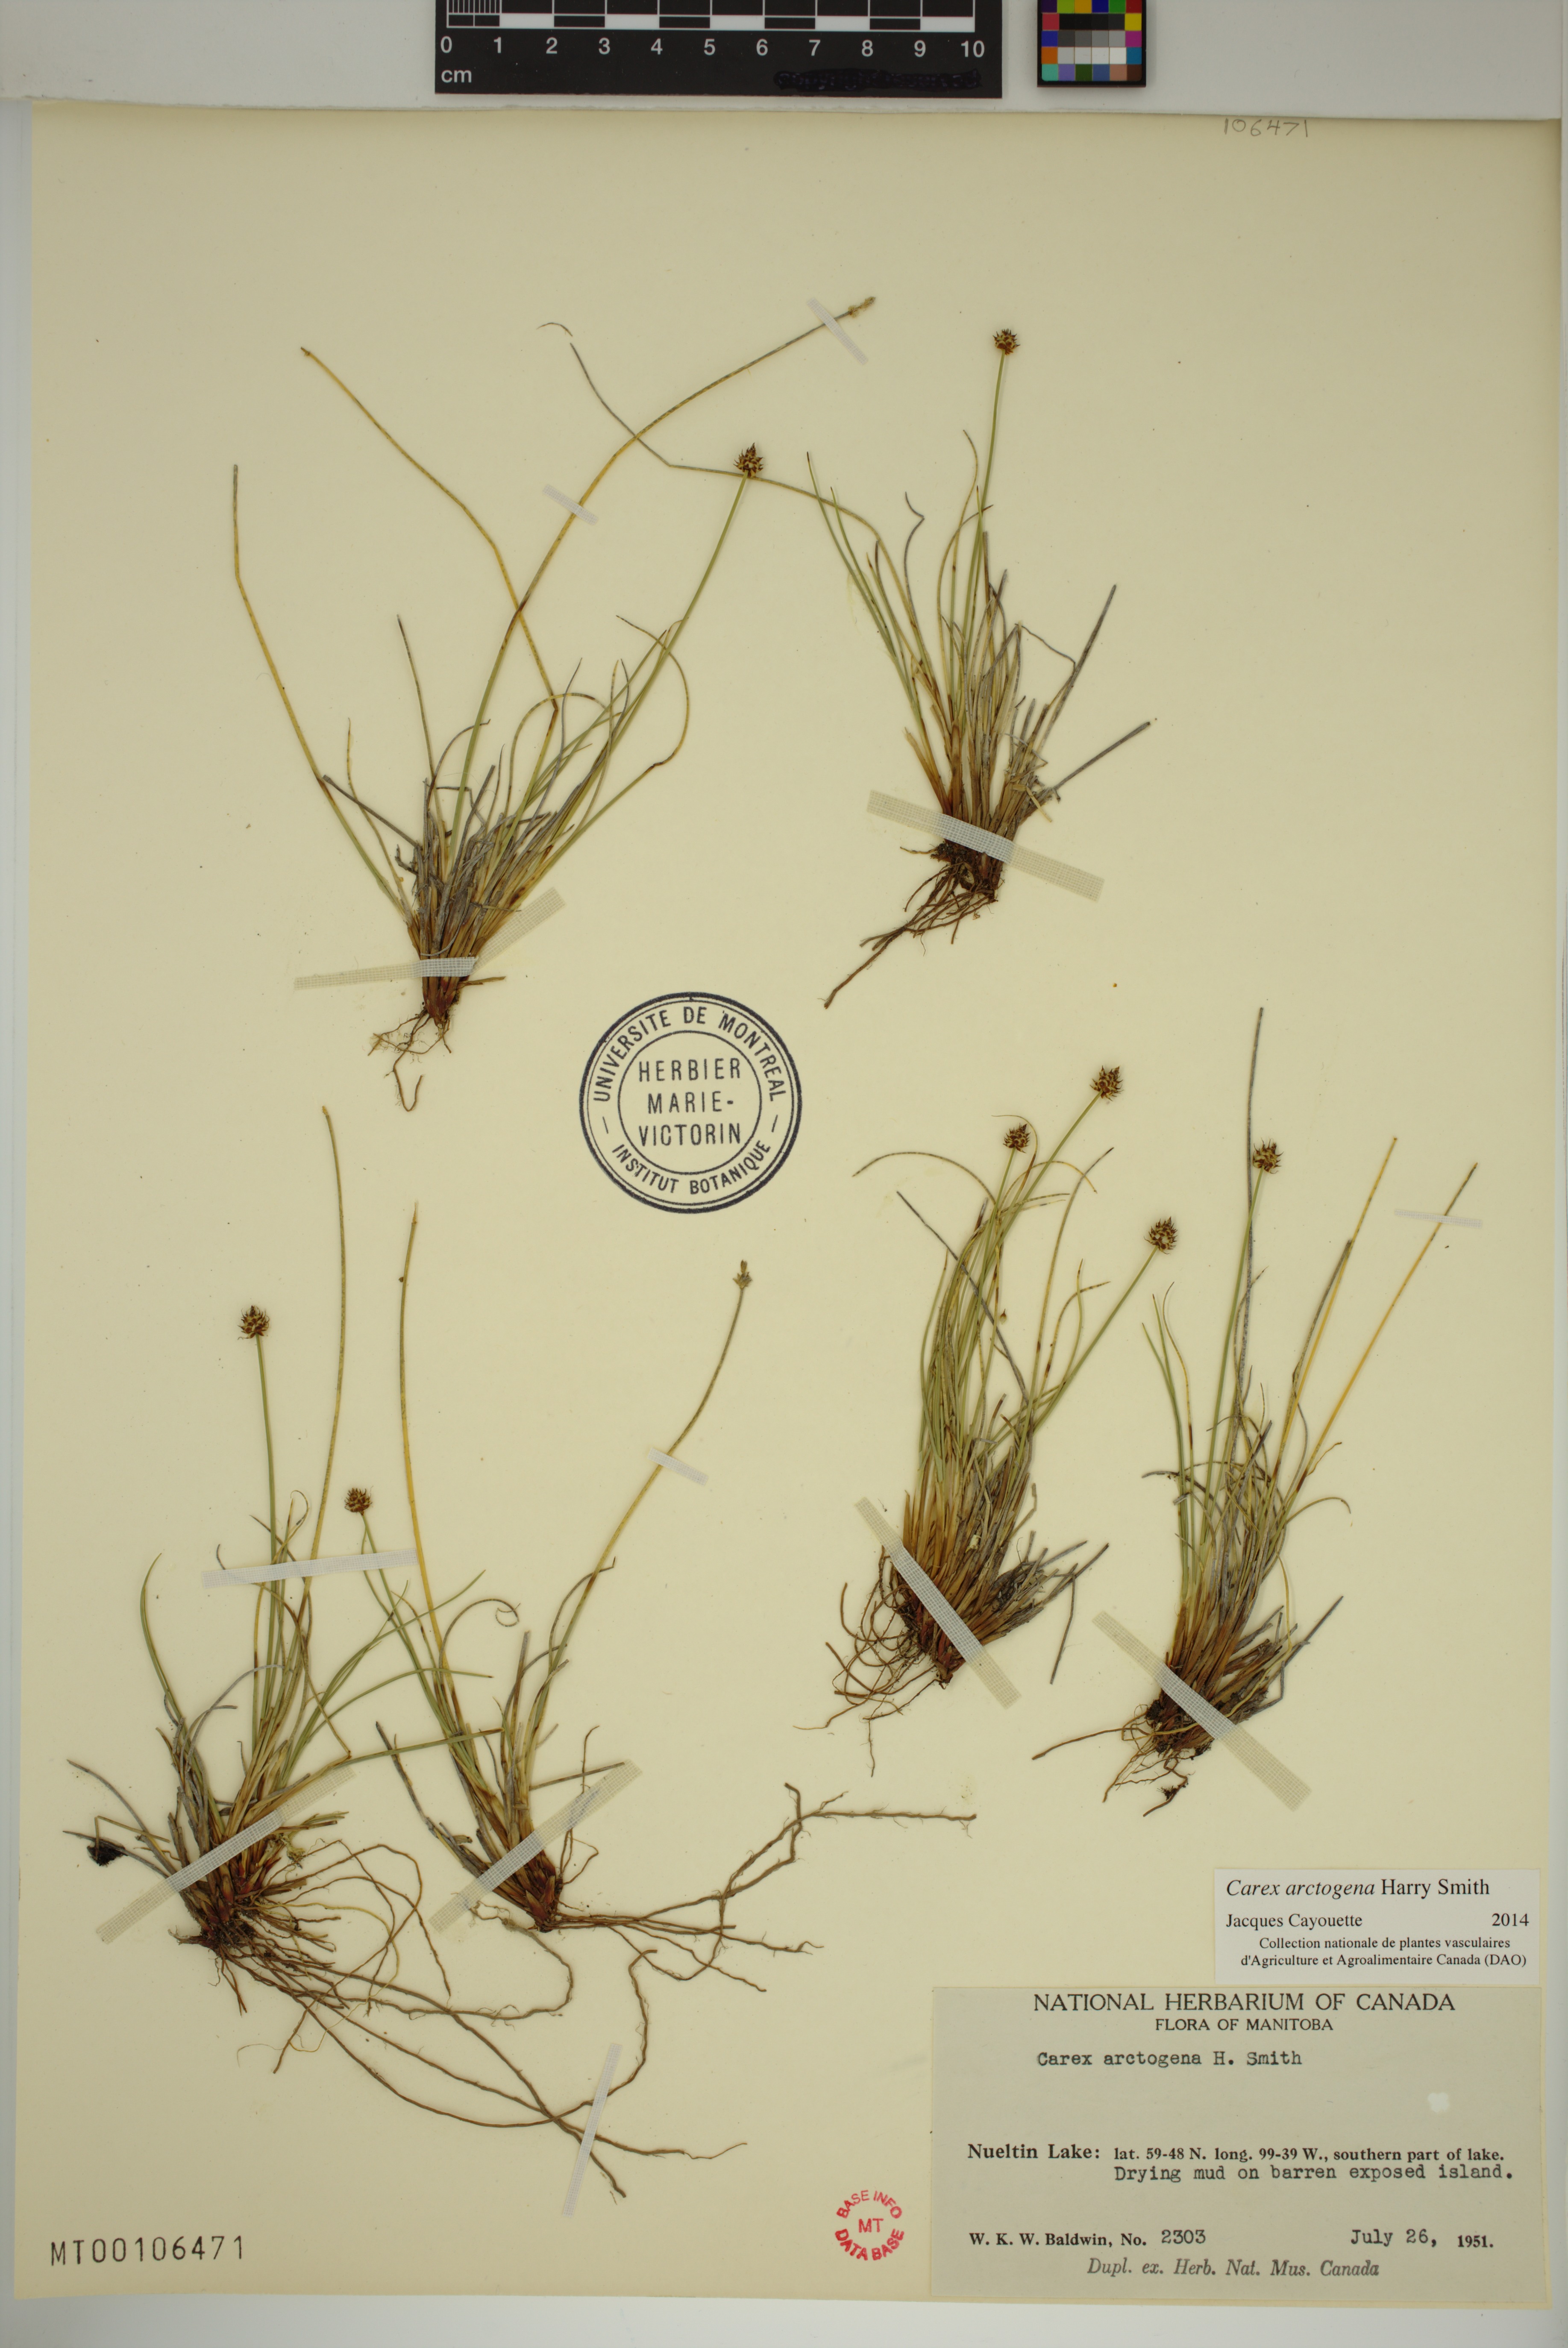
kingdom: Plantae
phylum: Tracheophyta
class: Liliopsida
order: Poales
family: Cyperaceae
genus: Carex
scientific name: Carex arctogena
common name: Black sedge
